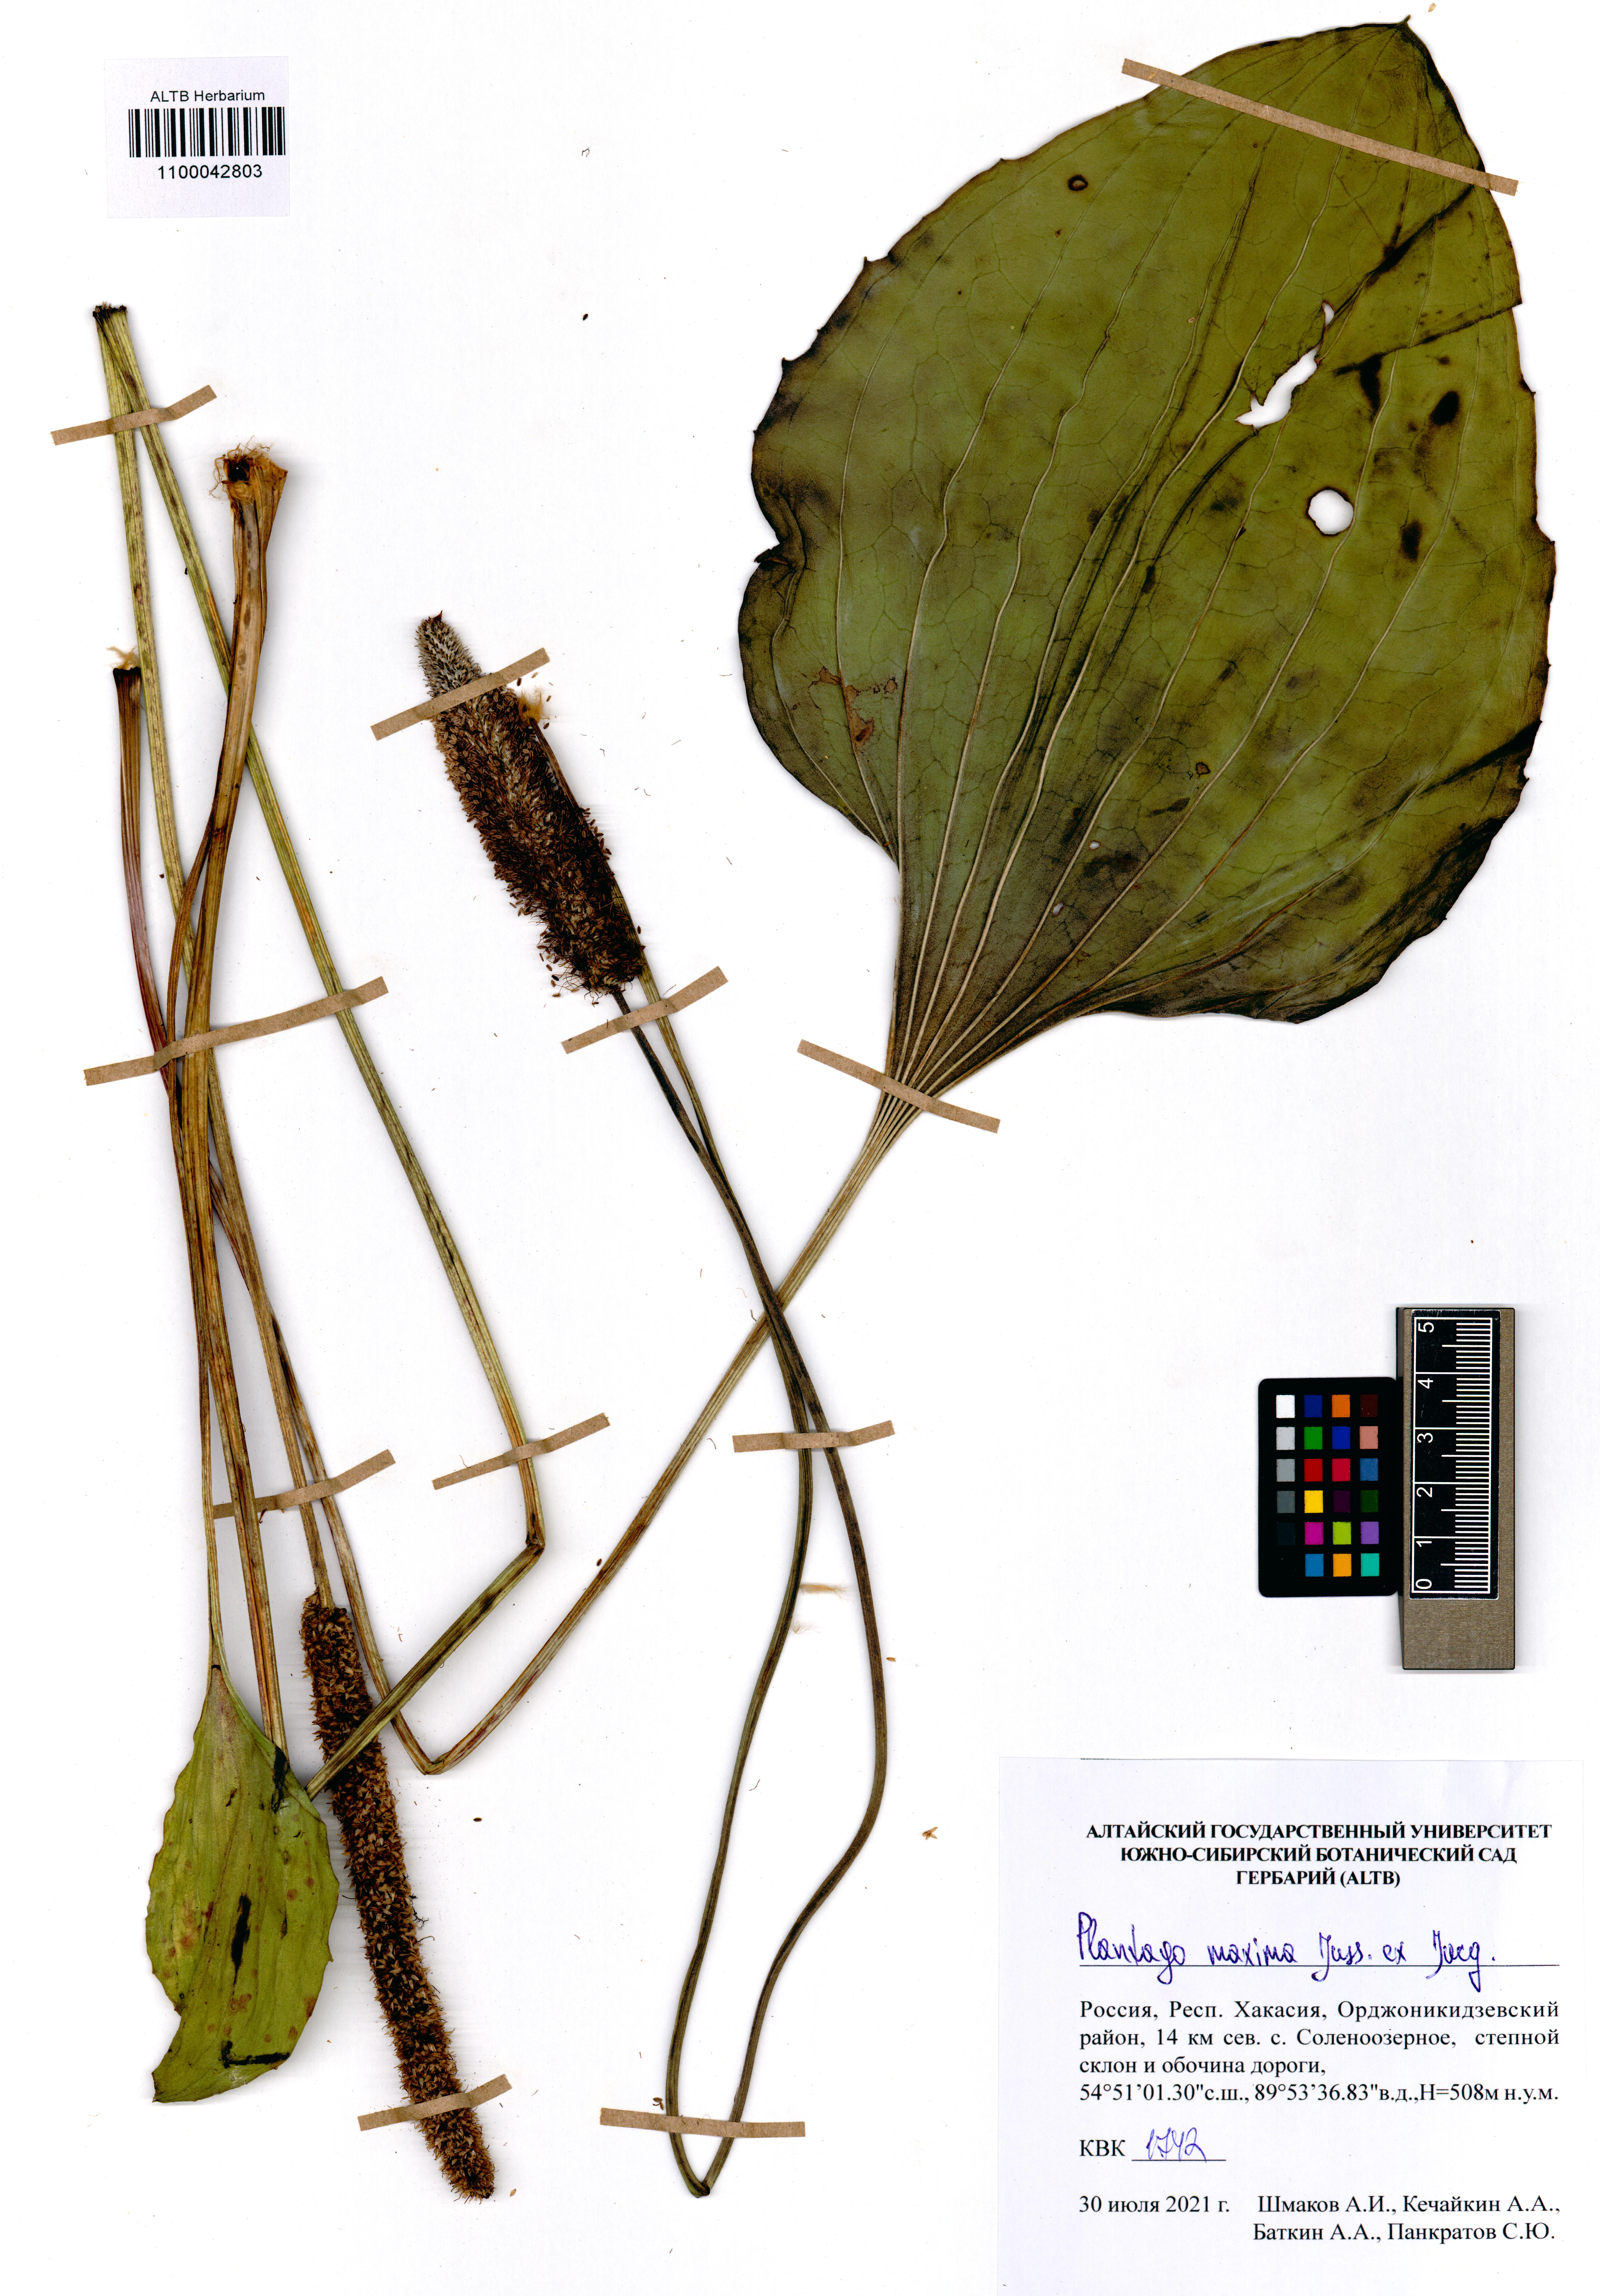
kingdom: Plantae
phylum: Tracheophyta
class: Magnoliopsida
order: Lamiales
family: Plantaginaceae
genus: Plantago
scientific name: Plantago maxima
